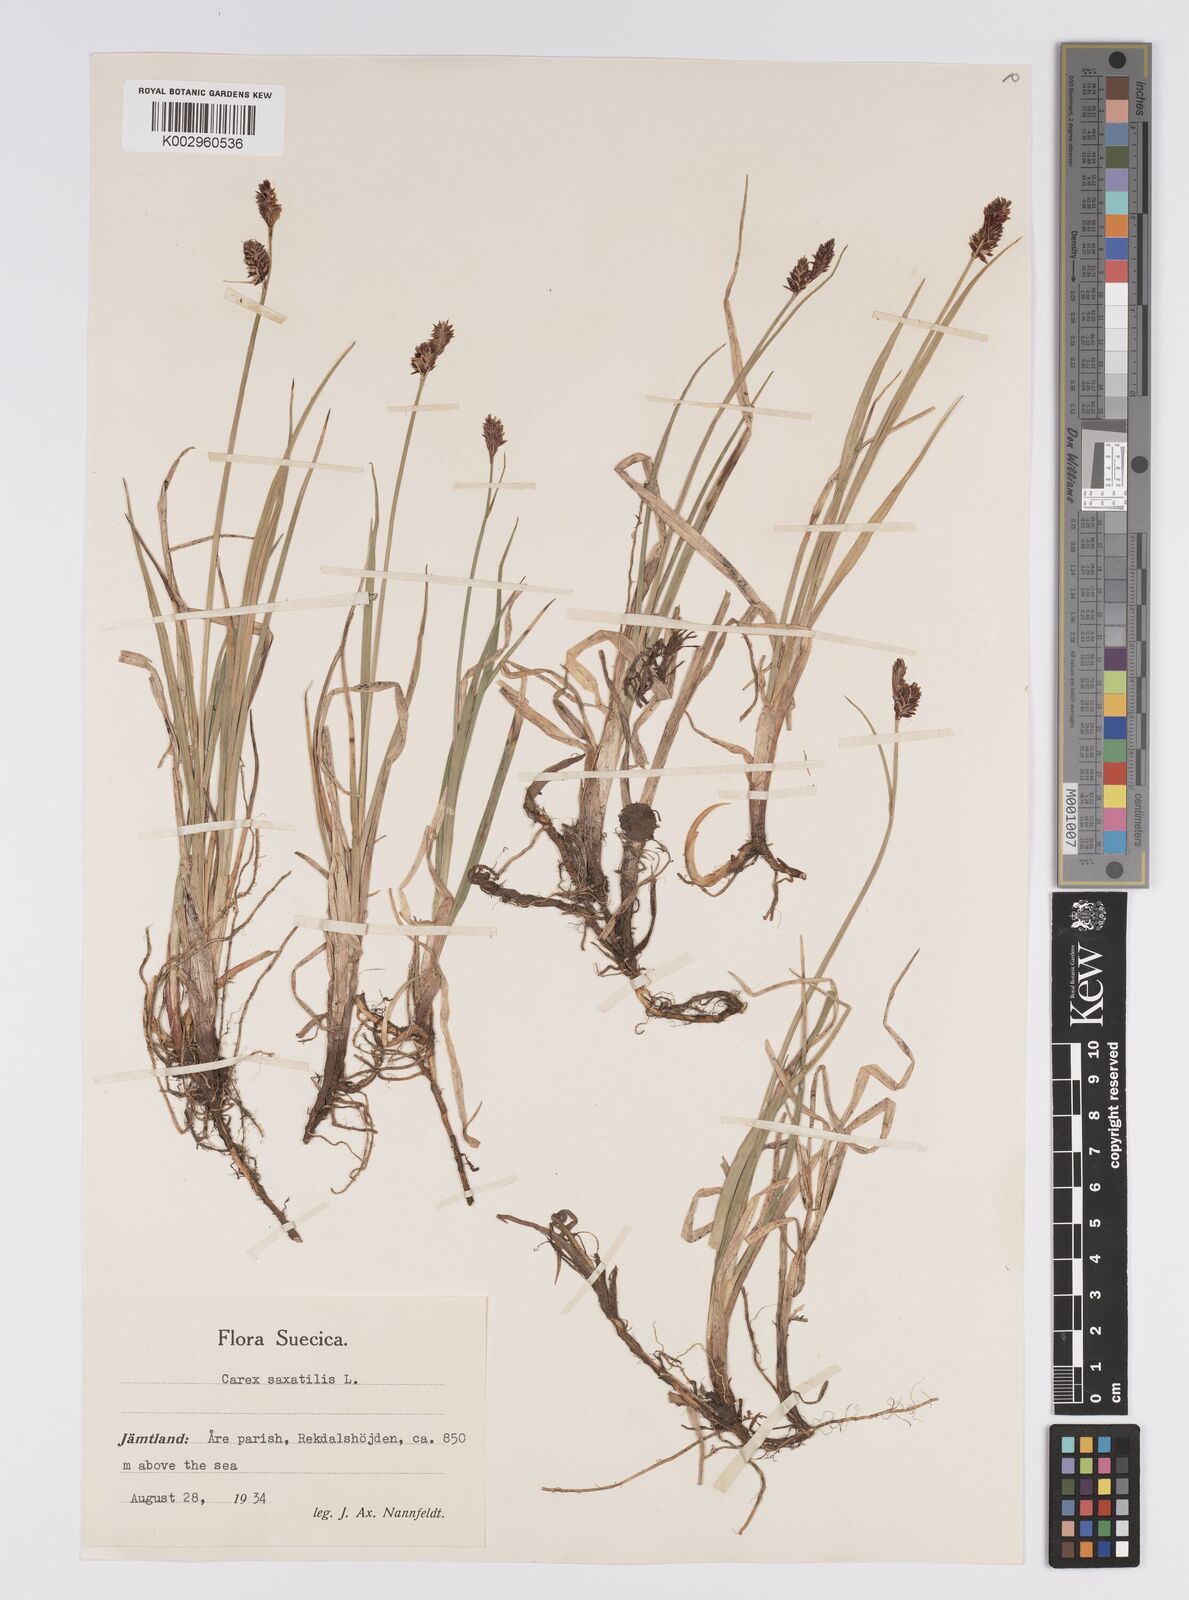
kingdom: Plantae
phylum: Tracheophyta
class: Liliopsida
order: Poales
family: Cyperaceae
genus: Carex
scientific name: Carex saxatilis
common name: Russet sedge
